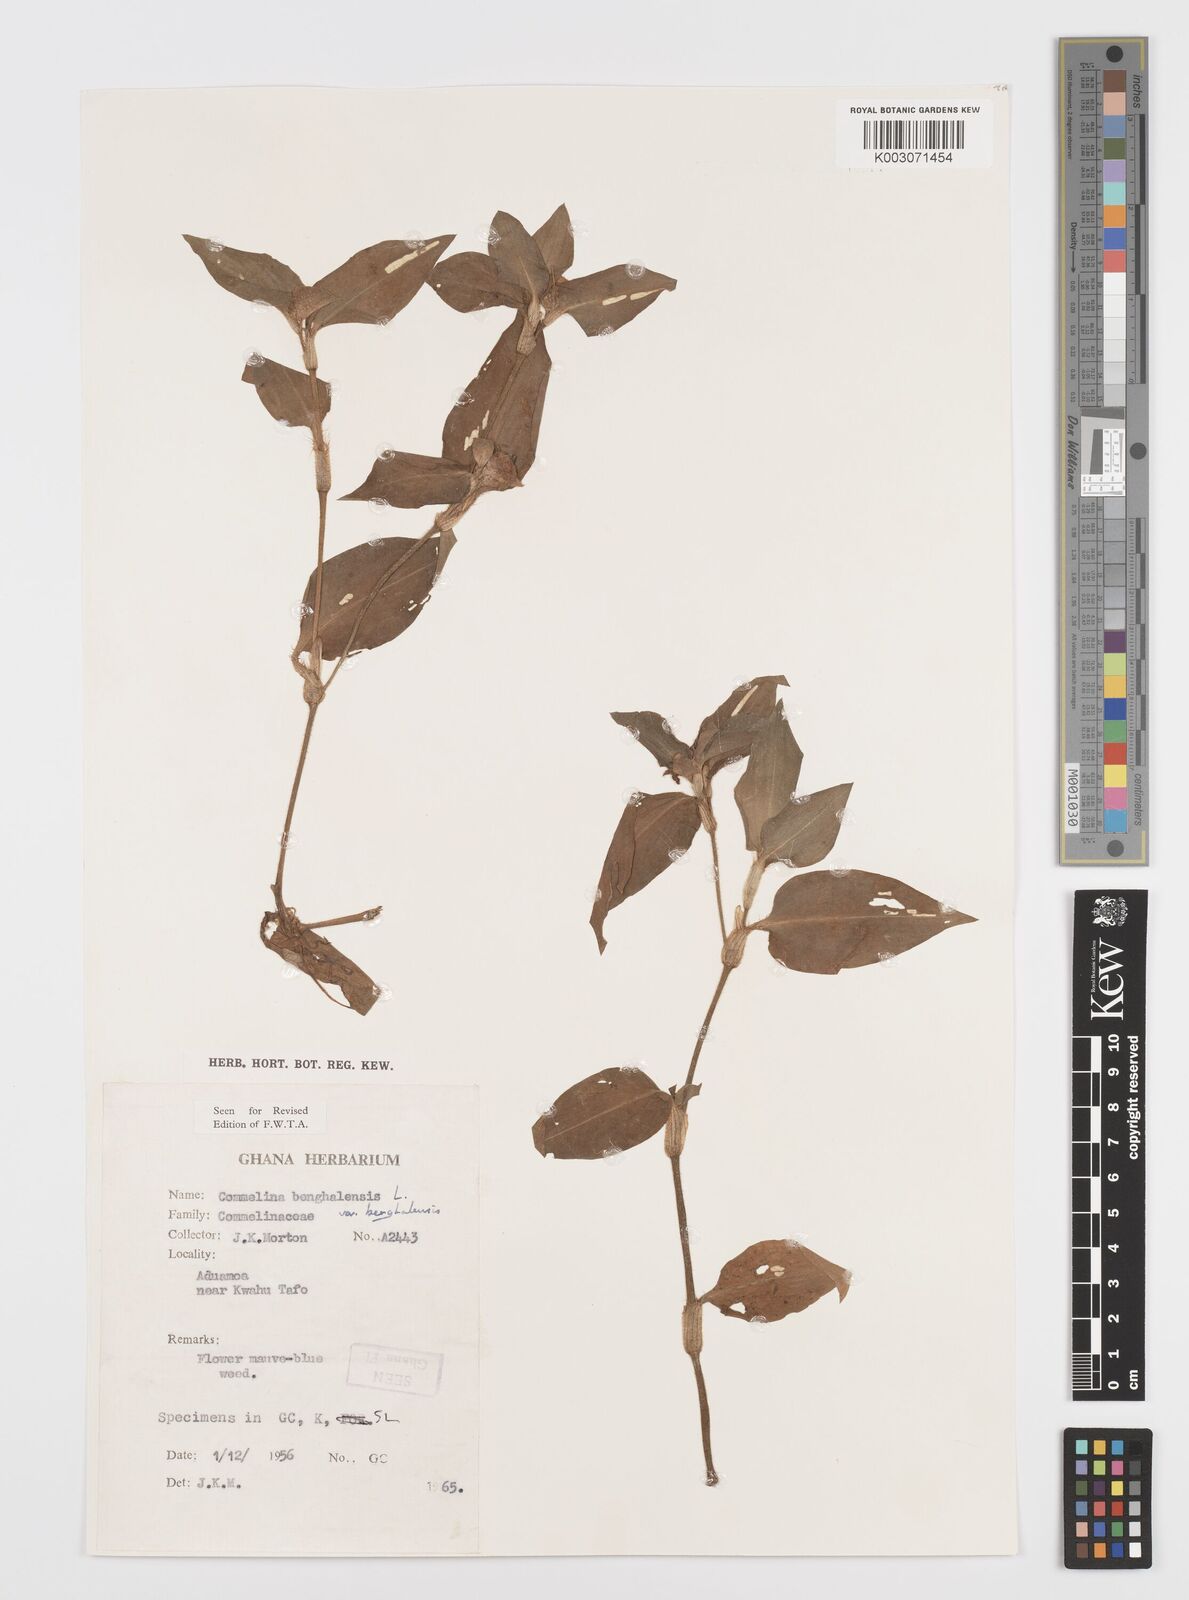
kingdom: Plantae
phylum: Tracheophyta
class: Liliopsida
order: Commelinales
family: Commelinaceae
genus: Commelina
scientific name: Commelina benghalensis
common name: Jio
